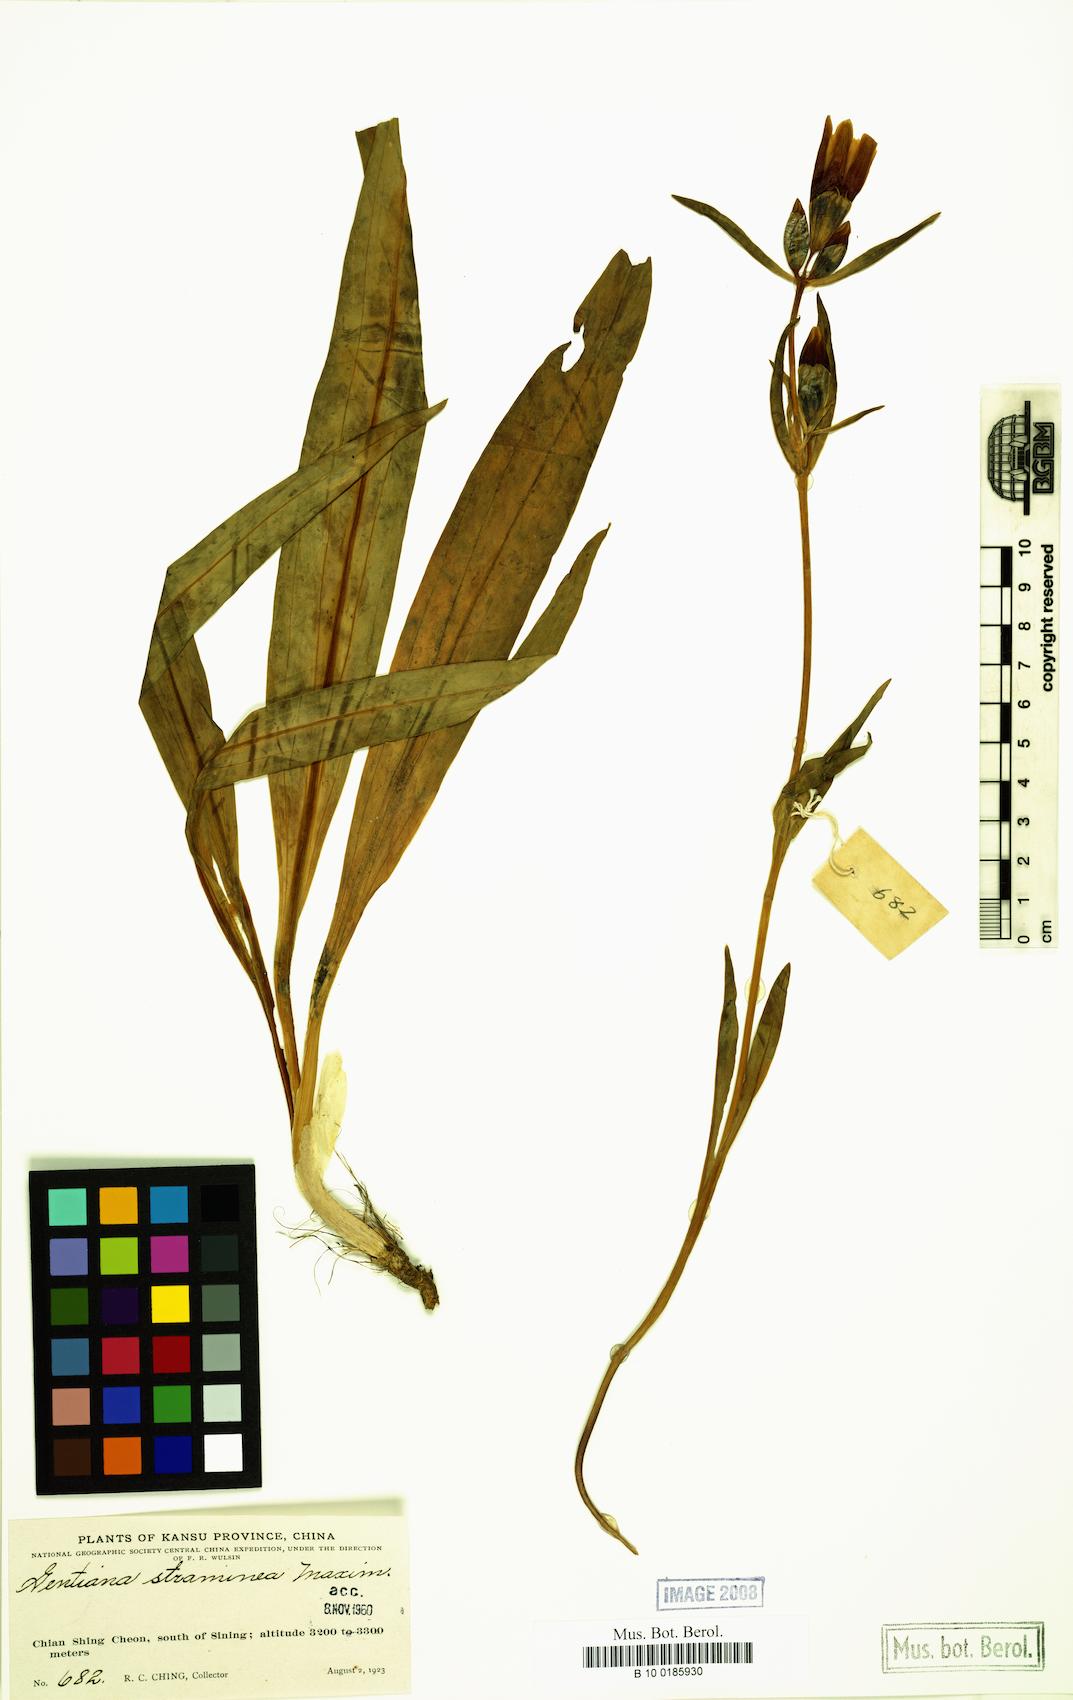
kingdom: Plantae
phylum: Tracheophyta
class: Magnoliopsida
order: Gentianales
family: Gentianaceae
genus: Gentiana
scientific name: Gentiana straminea
